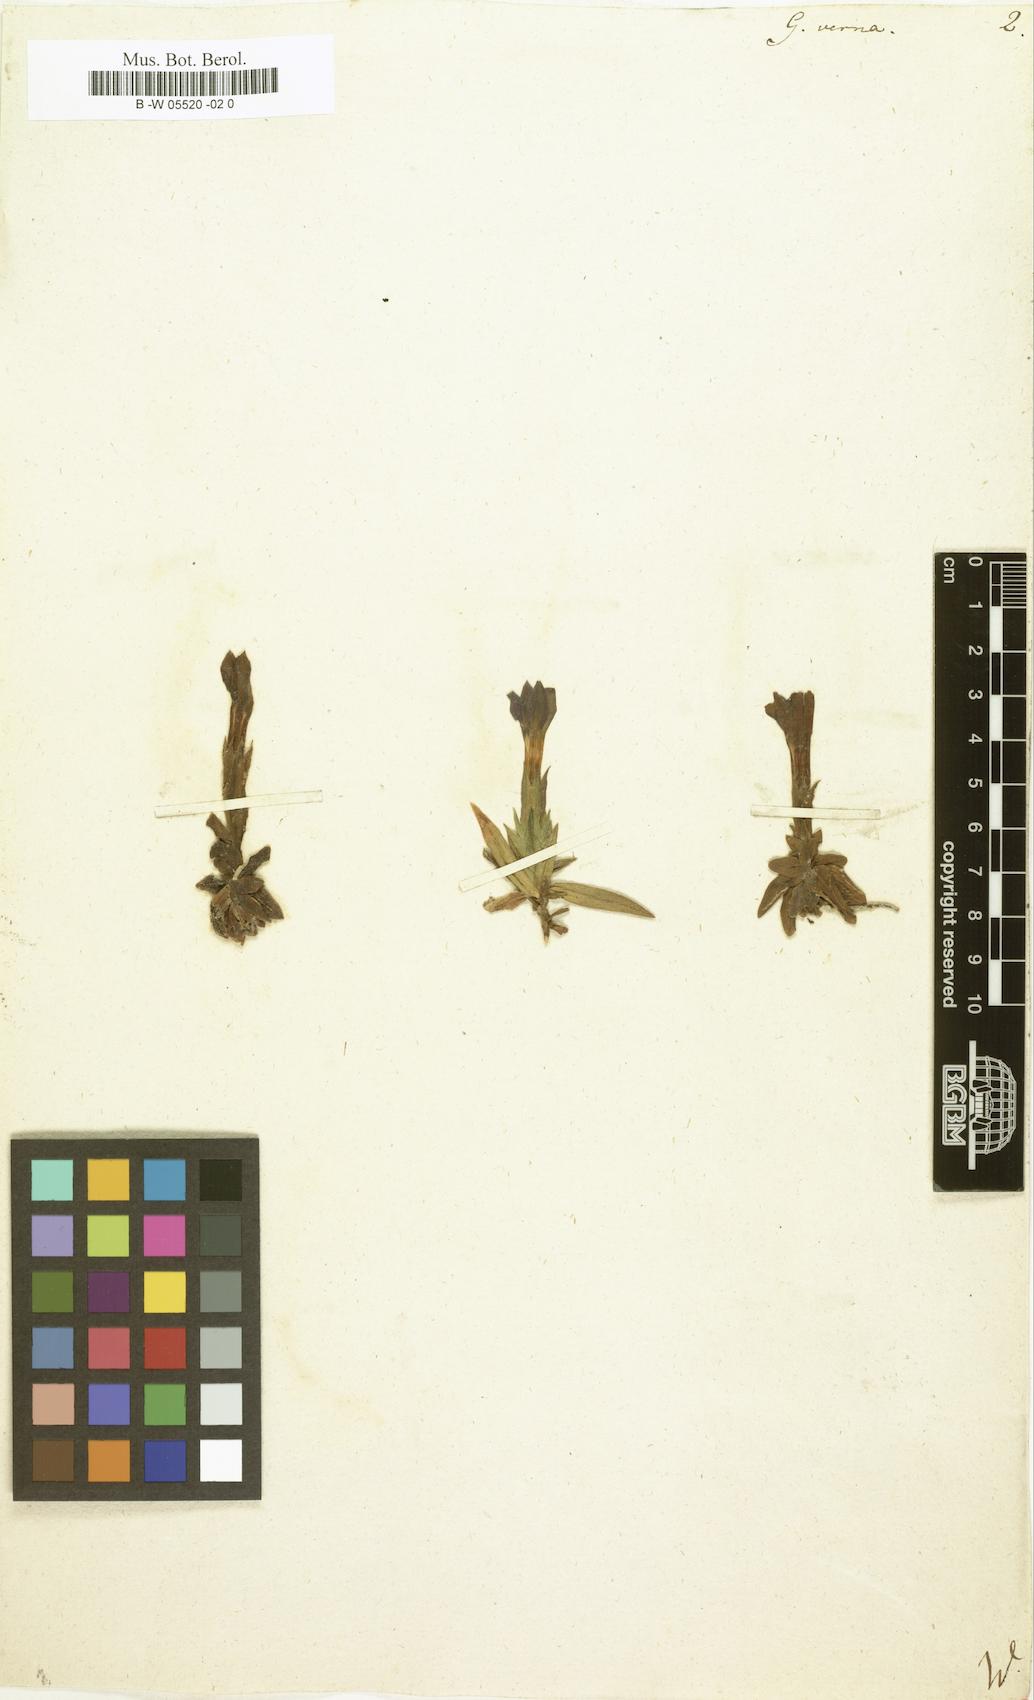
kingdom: Plantae
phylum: Tracheophyta
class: Magnoliopsida
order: Gentianales
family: Gentianaceae
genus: Gentiana
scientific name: Gentiana verna
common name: Spring gentian
